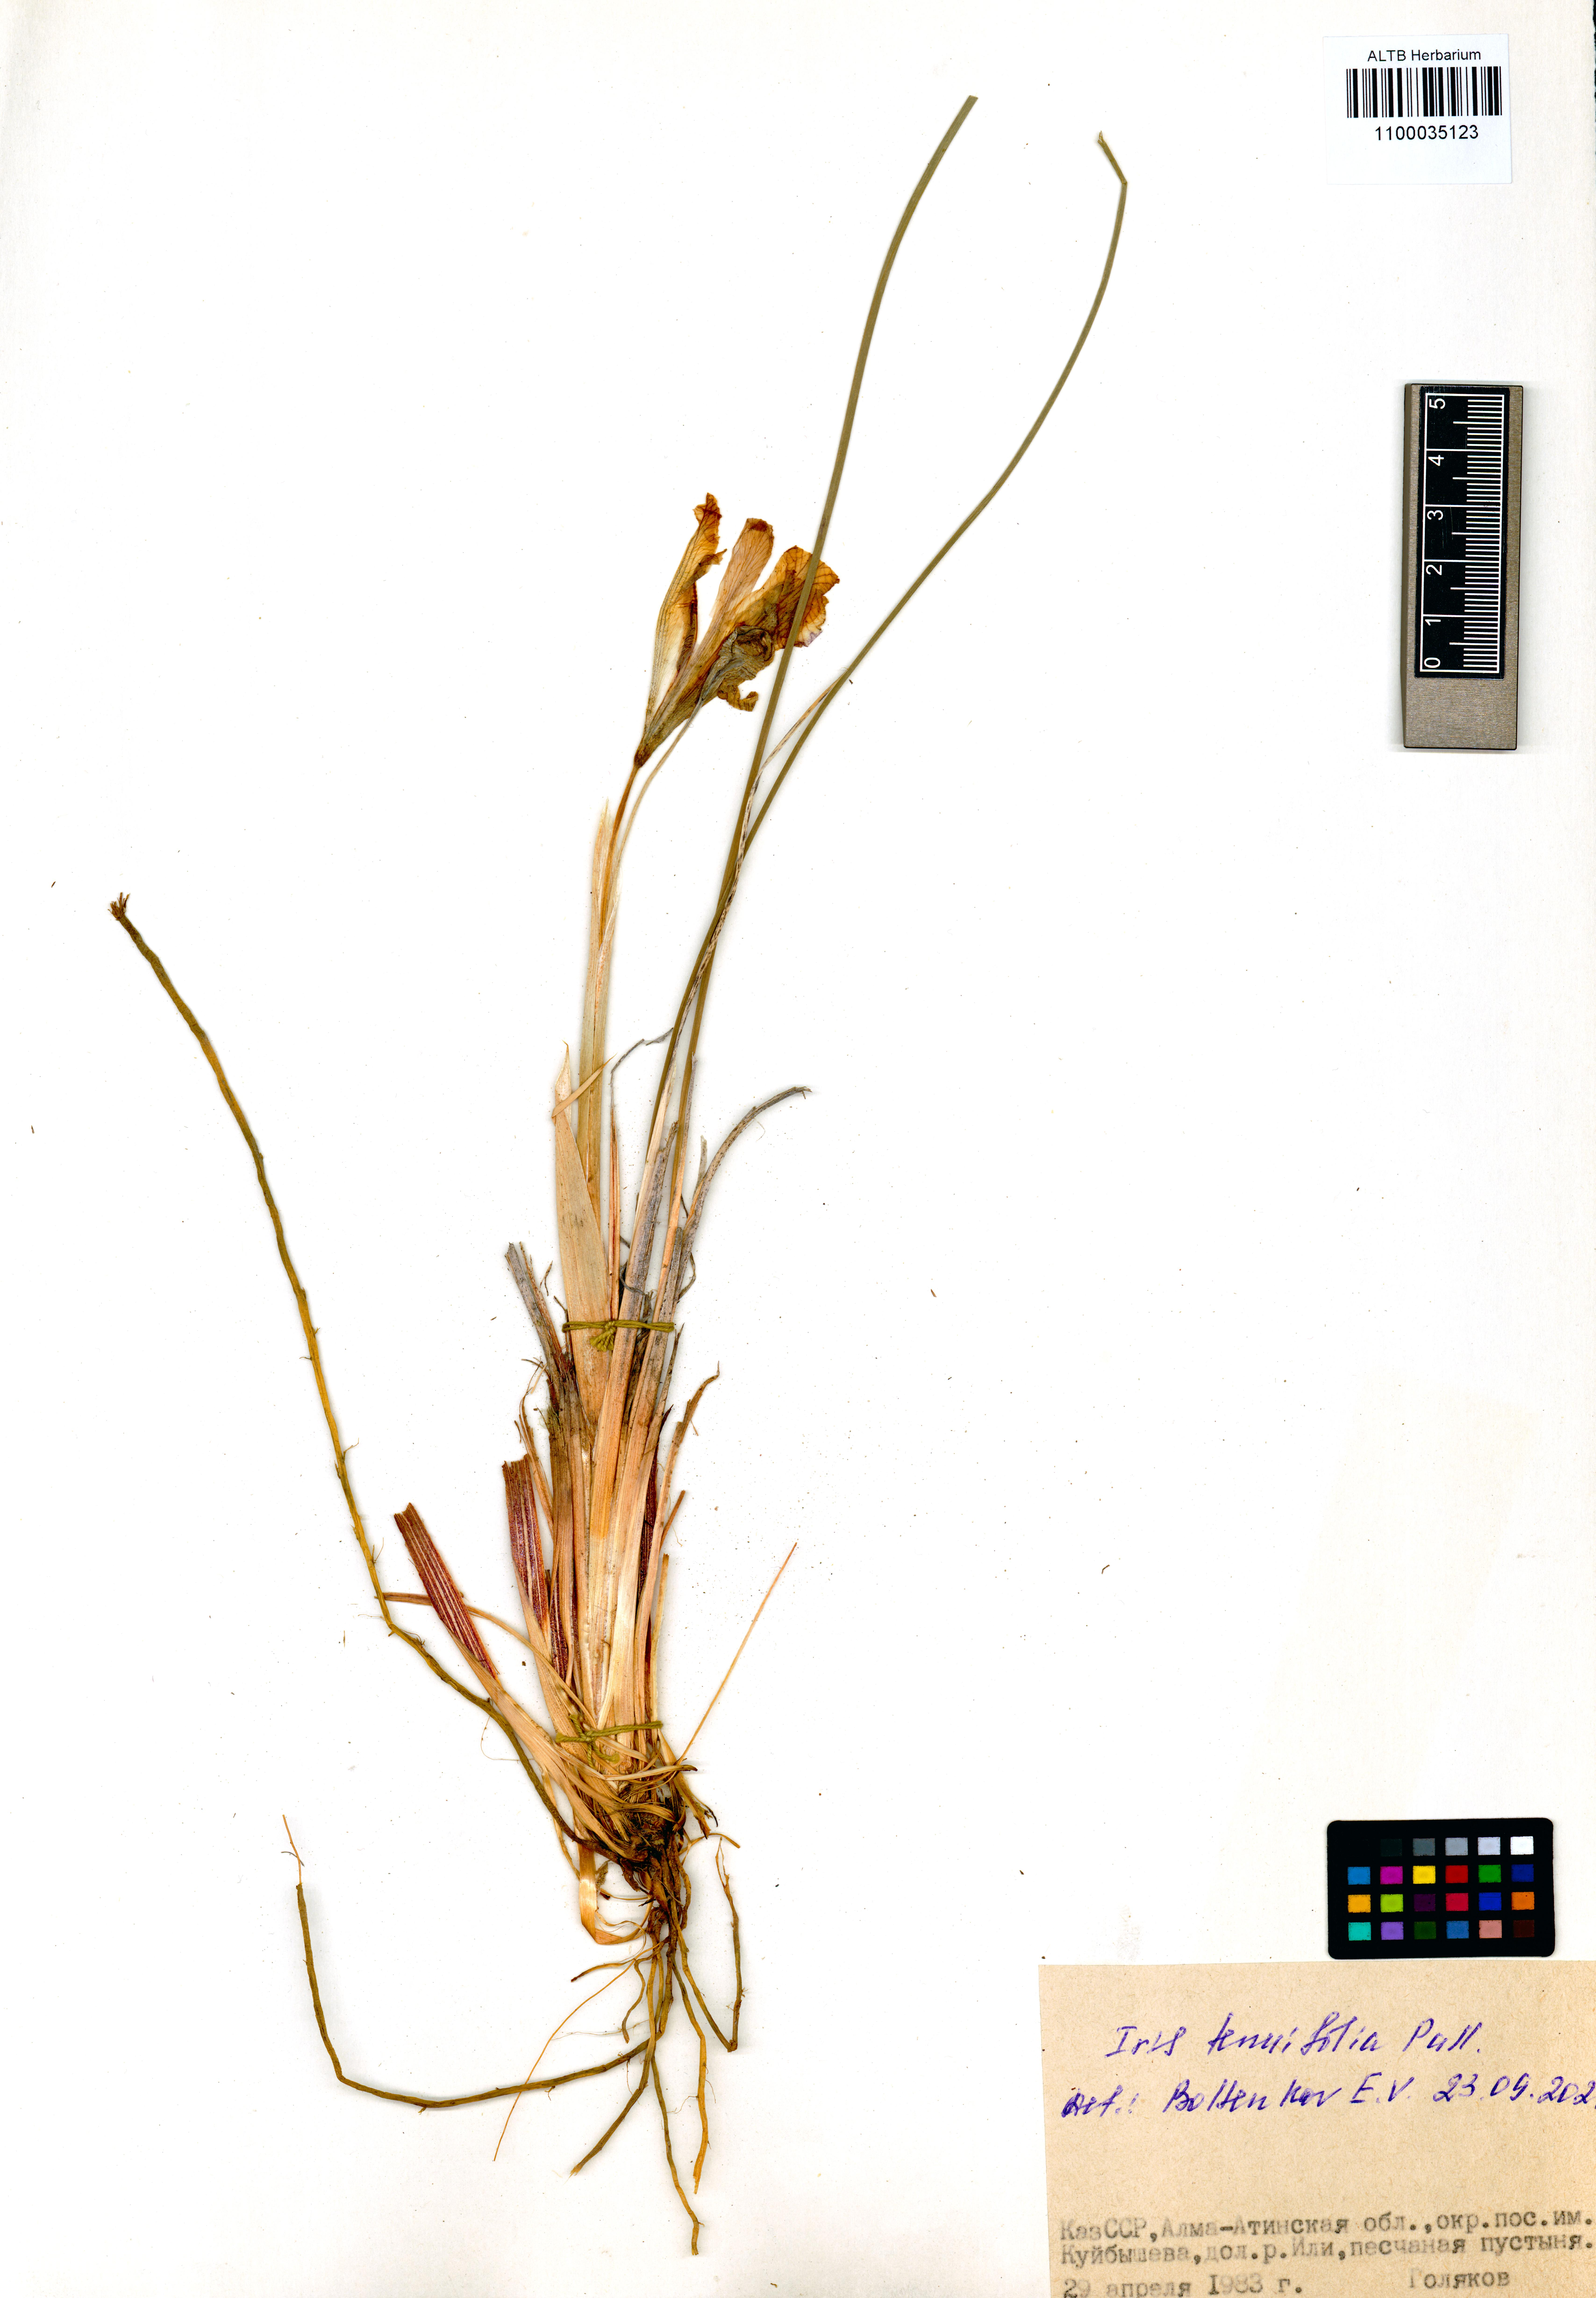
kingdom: Plantae
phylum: Tracheophyta
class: Liliopsida
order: Asparagales
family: Iridaceae
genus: Iris
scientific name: Iris tenuifolia
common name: Slender-leaf iris
